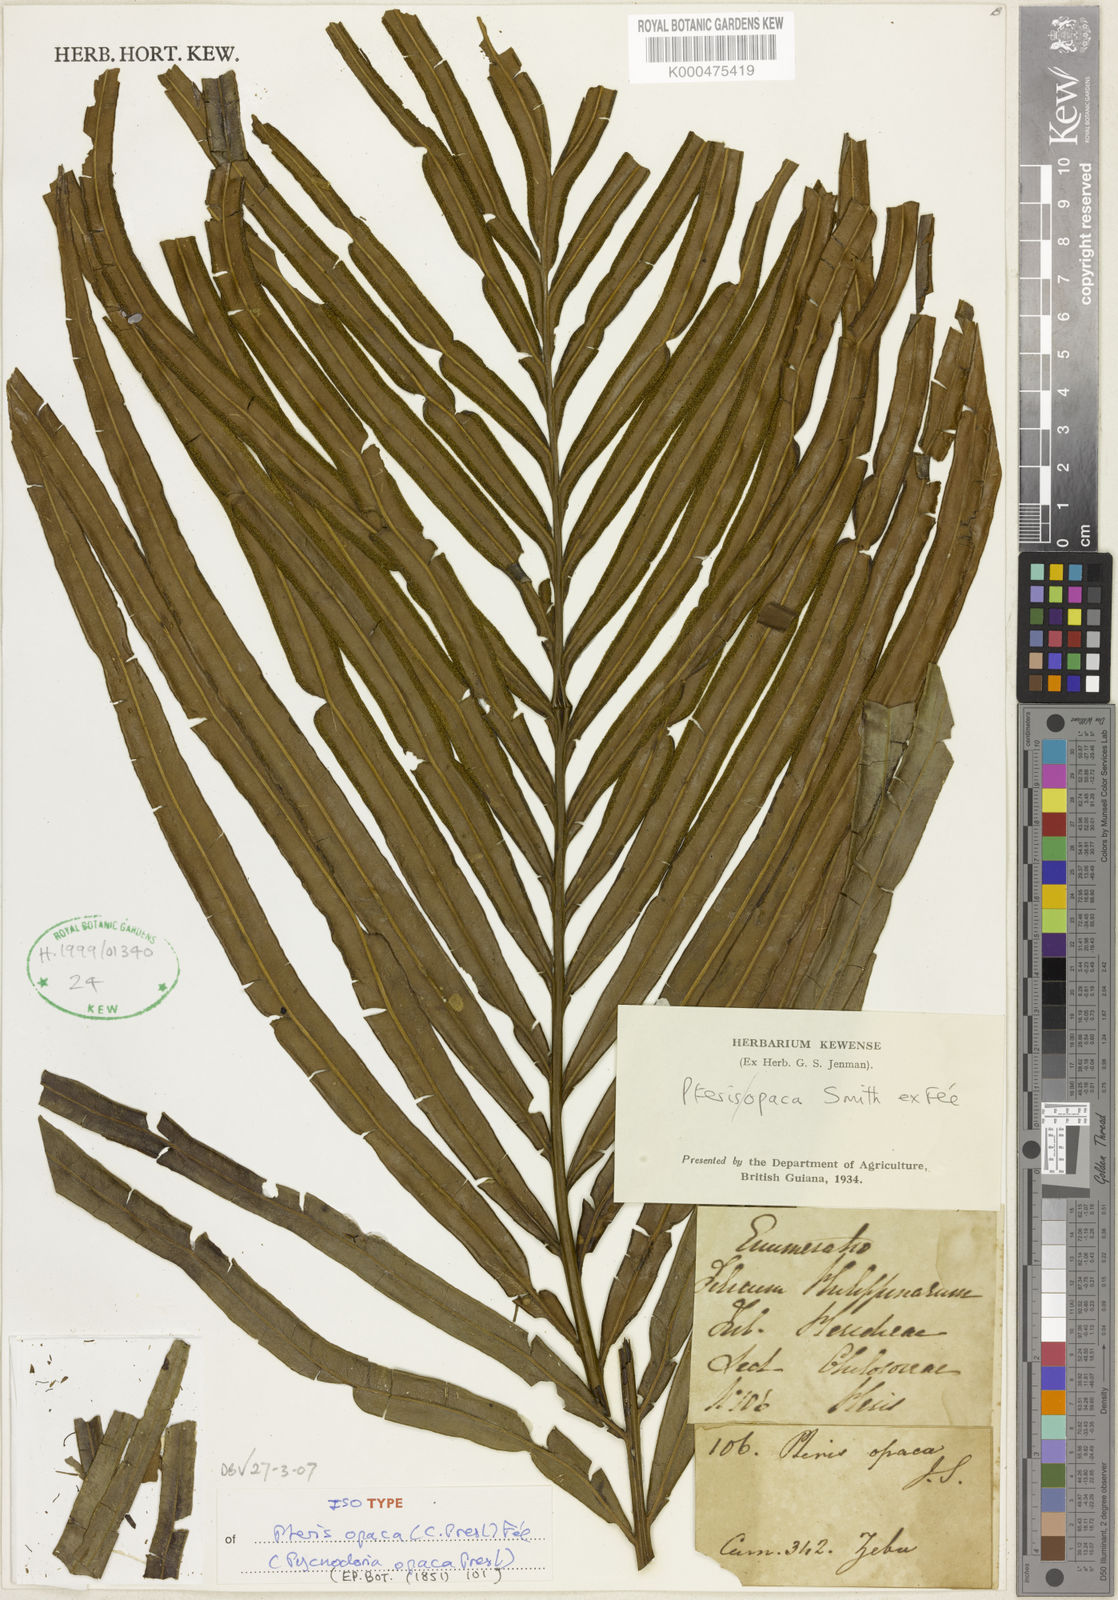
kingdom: Plantae
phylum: Tracheophyta
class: Polypodiopsida
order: Polypodiales
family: Pteridaceae
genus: Pteris
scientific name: Pteris
